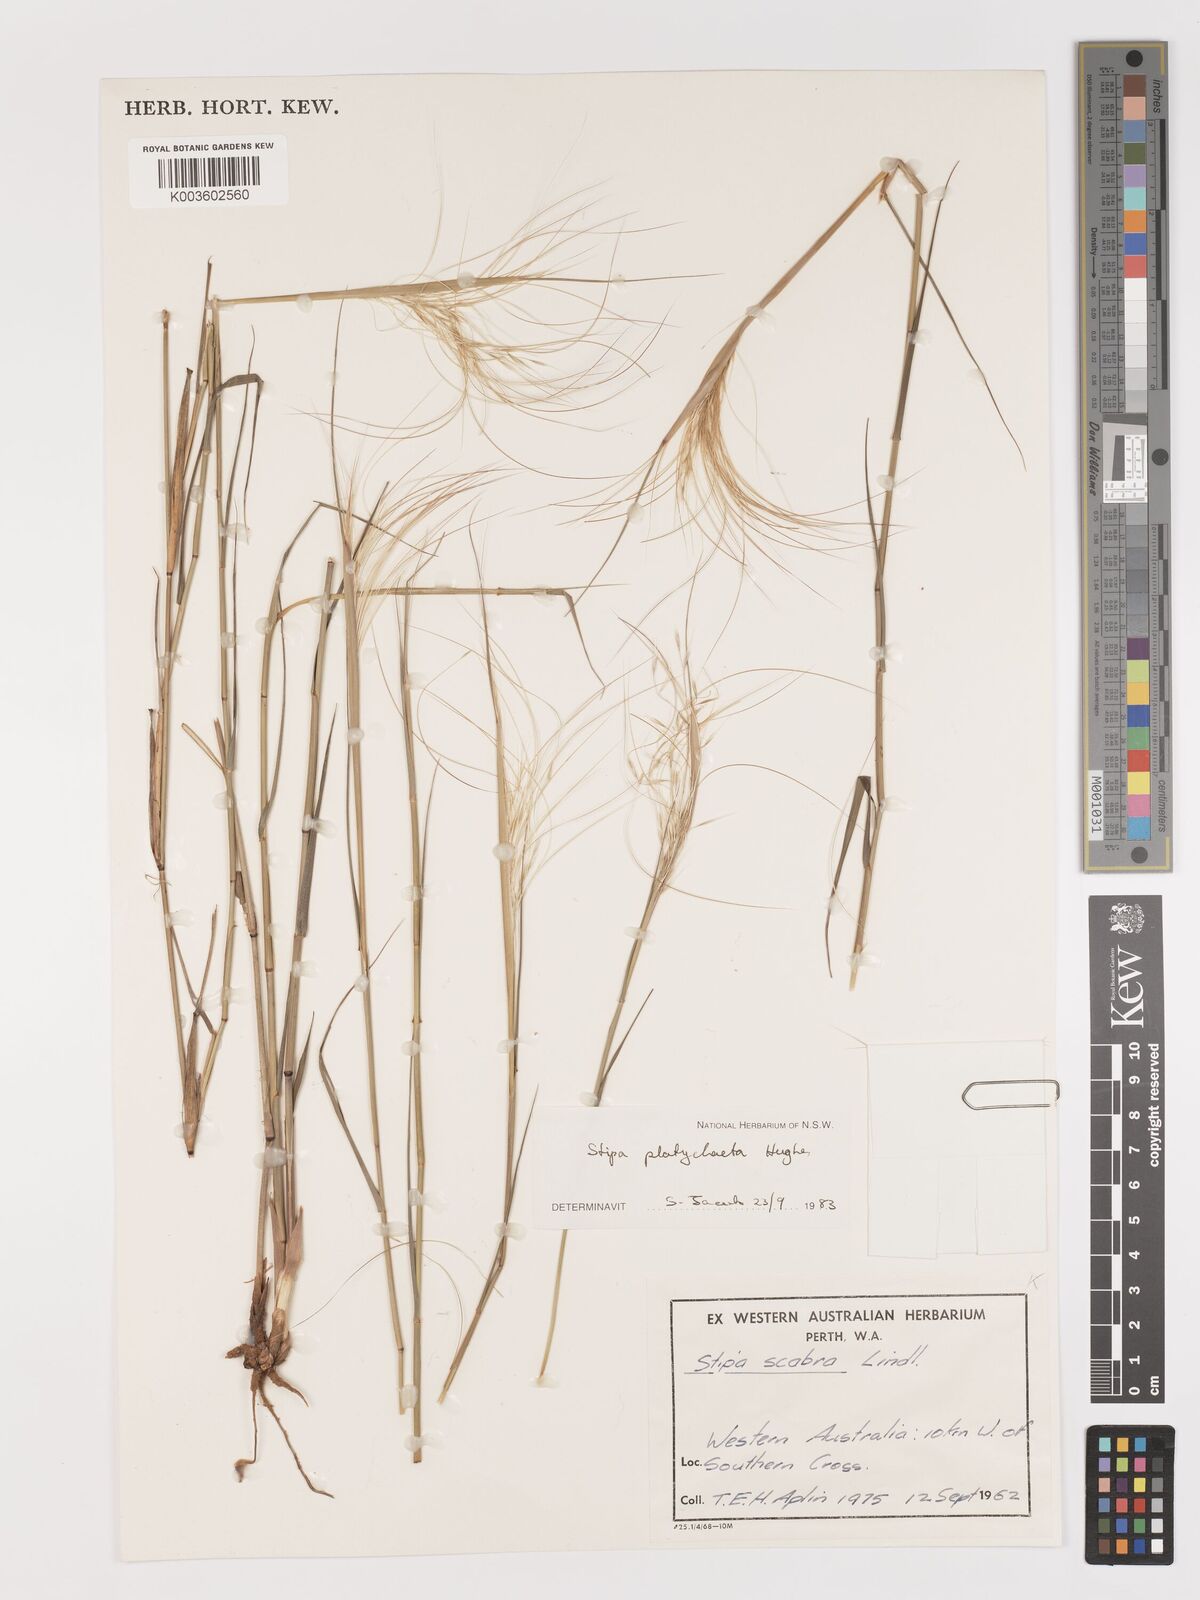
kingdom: Plantae
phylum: Tracheophyta
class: Liliopsida
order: Poales
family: Poaceae
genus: Austrostipa
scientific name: Austrostipa platychaeta
